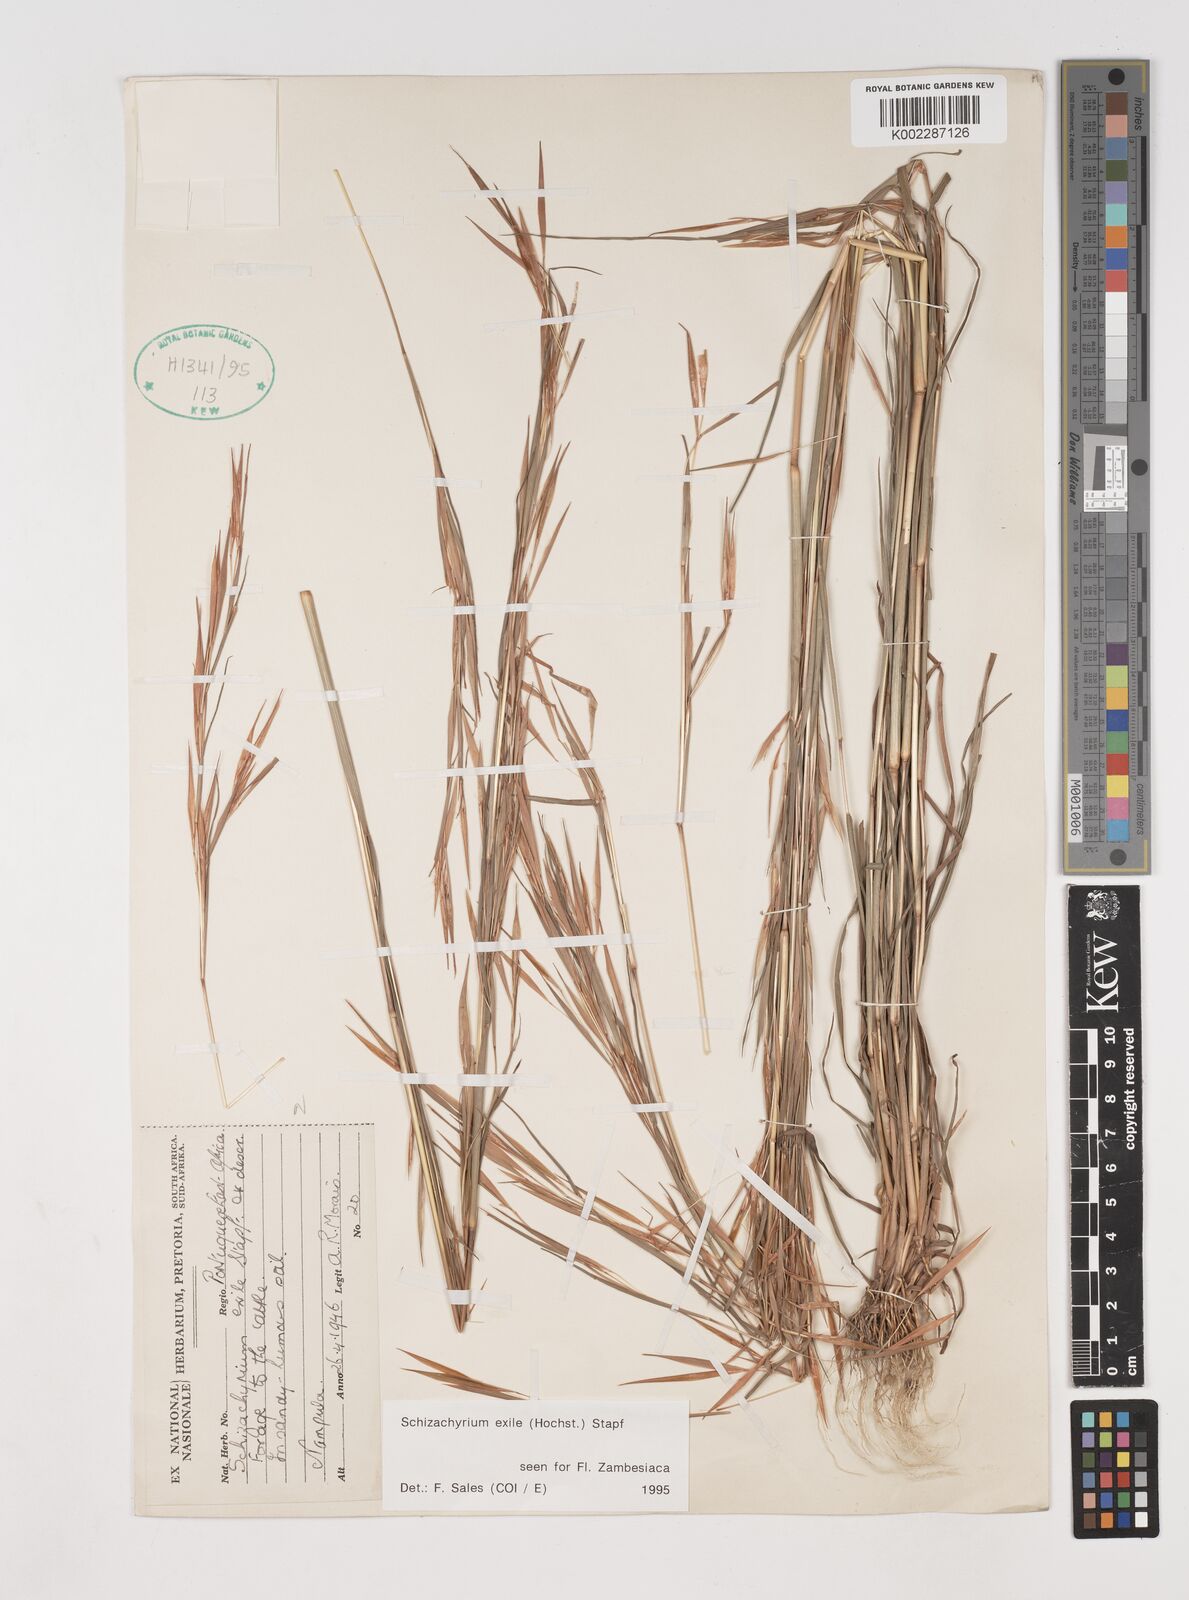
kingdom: Plantae
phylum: Tracheophyta
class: Liliopsida
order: Poales
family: Poaceae
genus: Schizachyrium
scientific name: Schizachyrium exile
